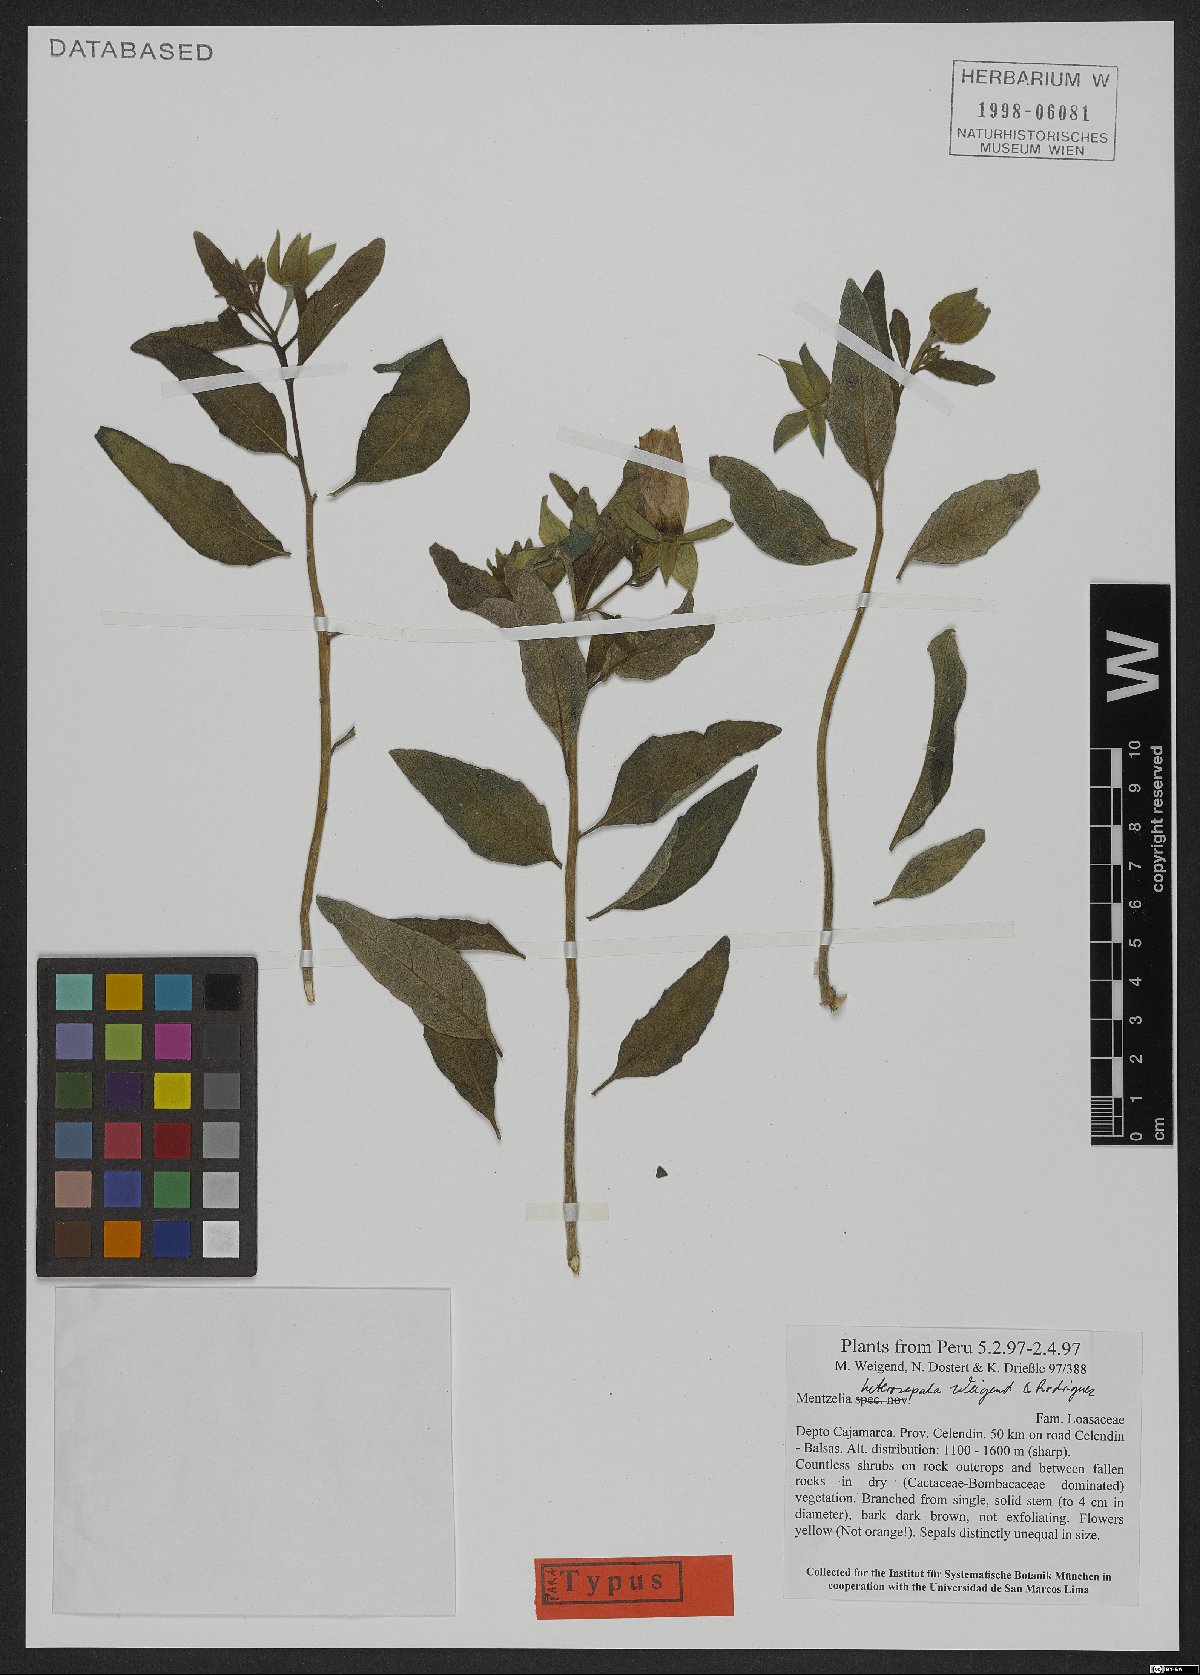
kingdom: Plantae
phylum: Tracheophyta
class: Magnoliopsida
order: Cornales
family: Loasaceae
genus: Mentzelia
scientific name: Mentzelia heterosepala
